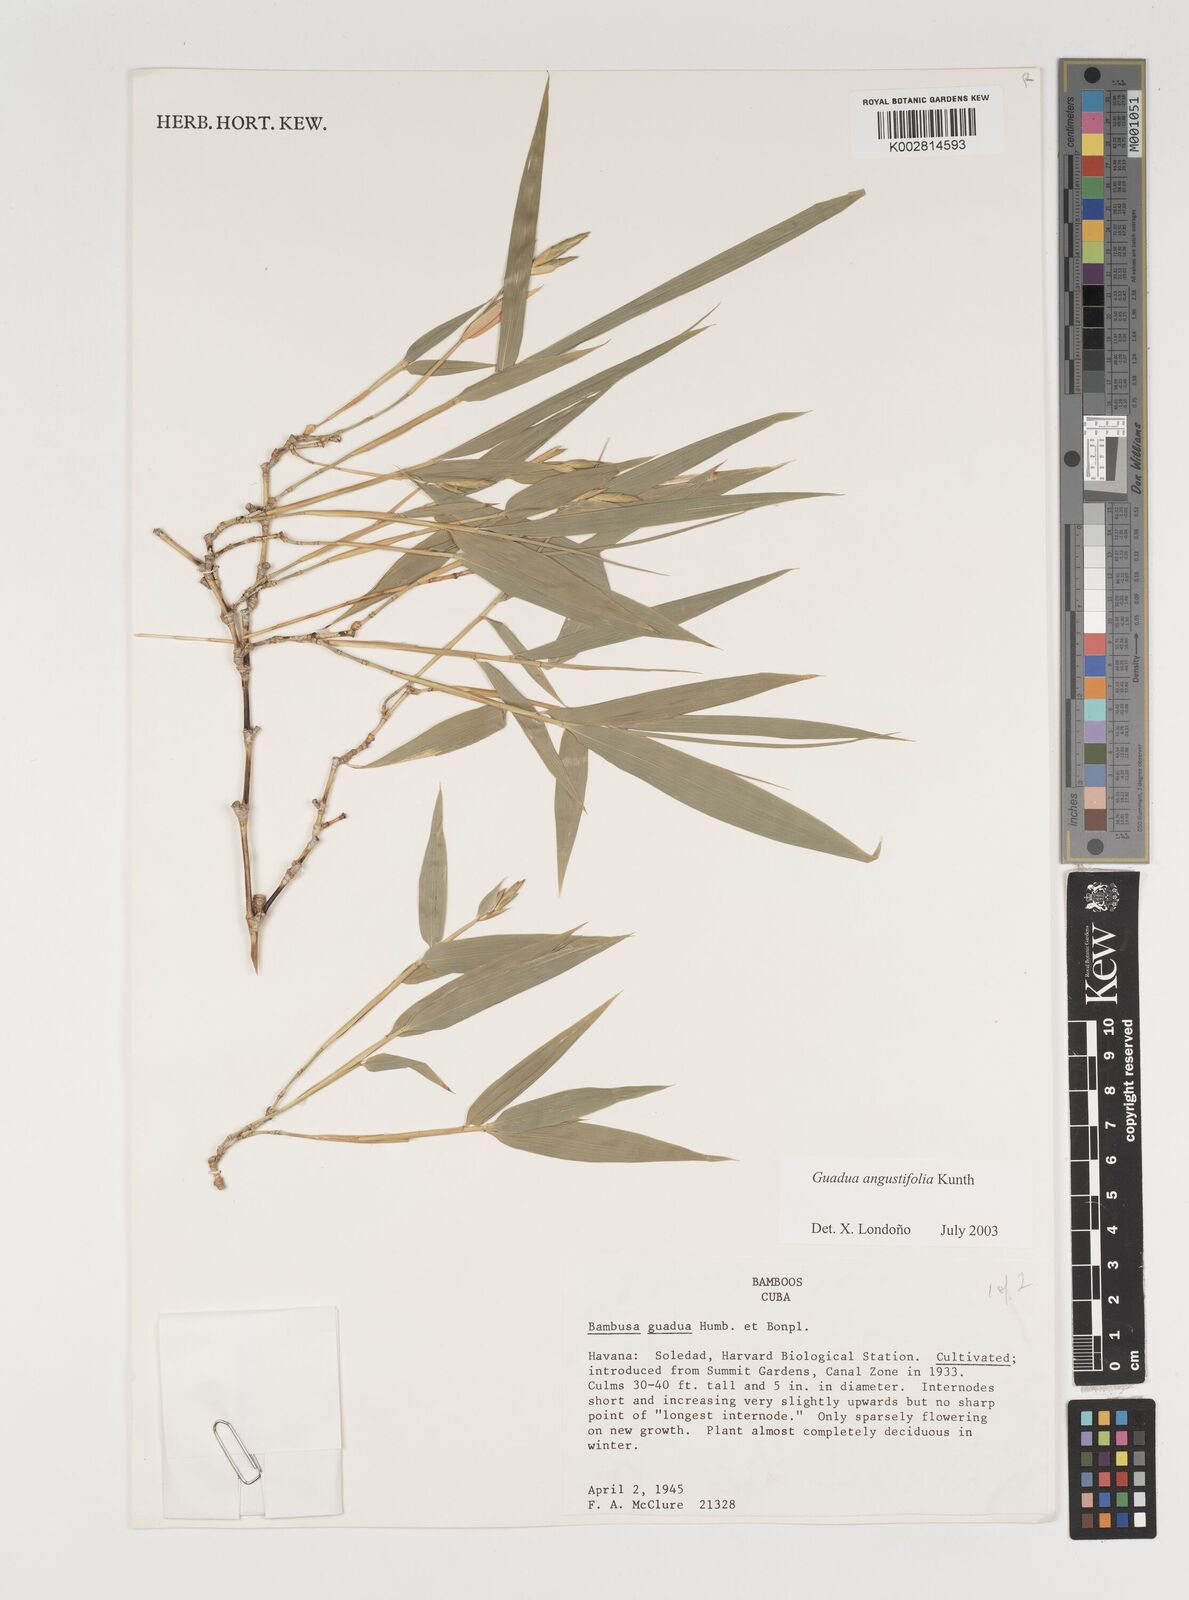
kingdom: Plantae
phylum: Tracheophyta
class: Liliopsida
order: Poales
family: Poaceae
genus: Guadua
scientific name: Guadua angustifolia
